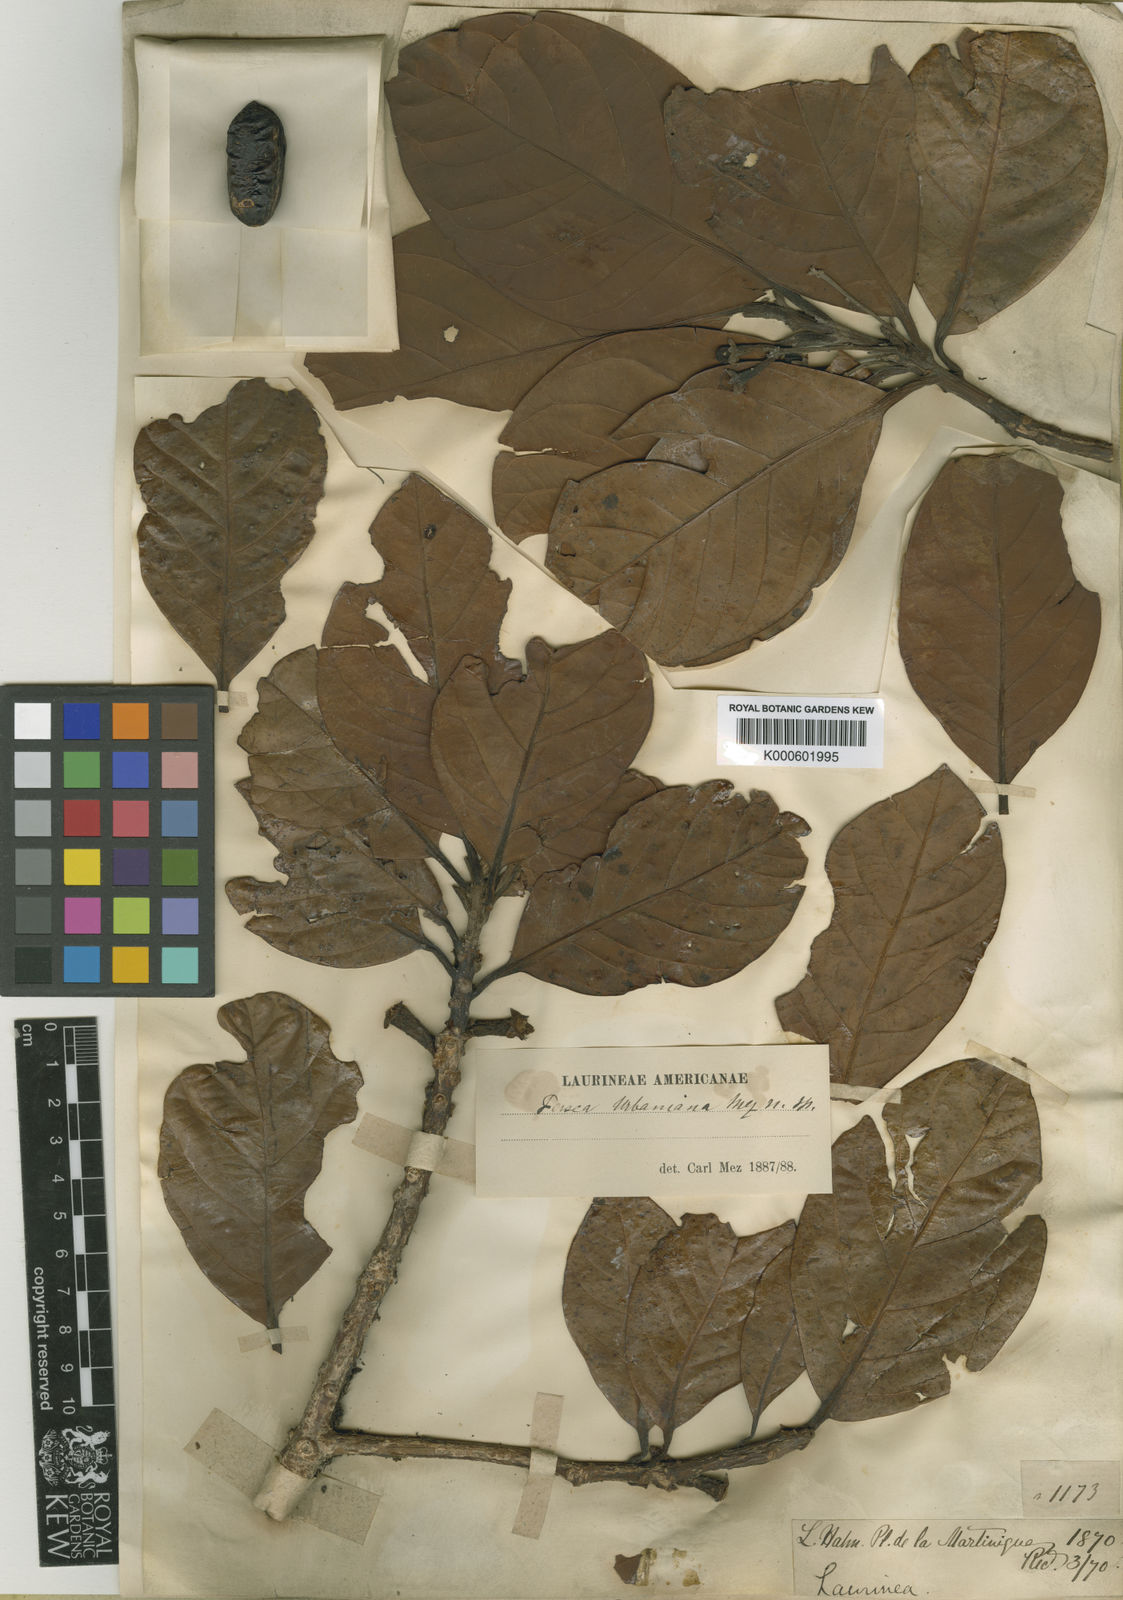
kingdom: Plantae
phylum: Tracheophyta
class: Magnoliopsida
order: Laurales
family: Lauraceae
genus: Persea
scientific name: Persea urbaniana
